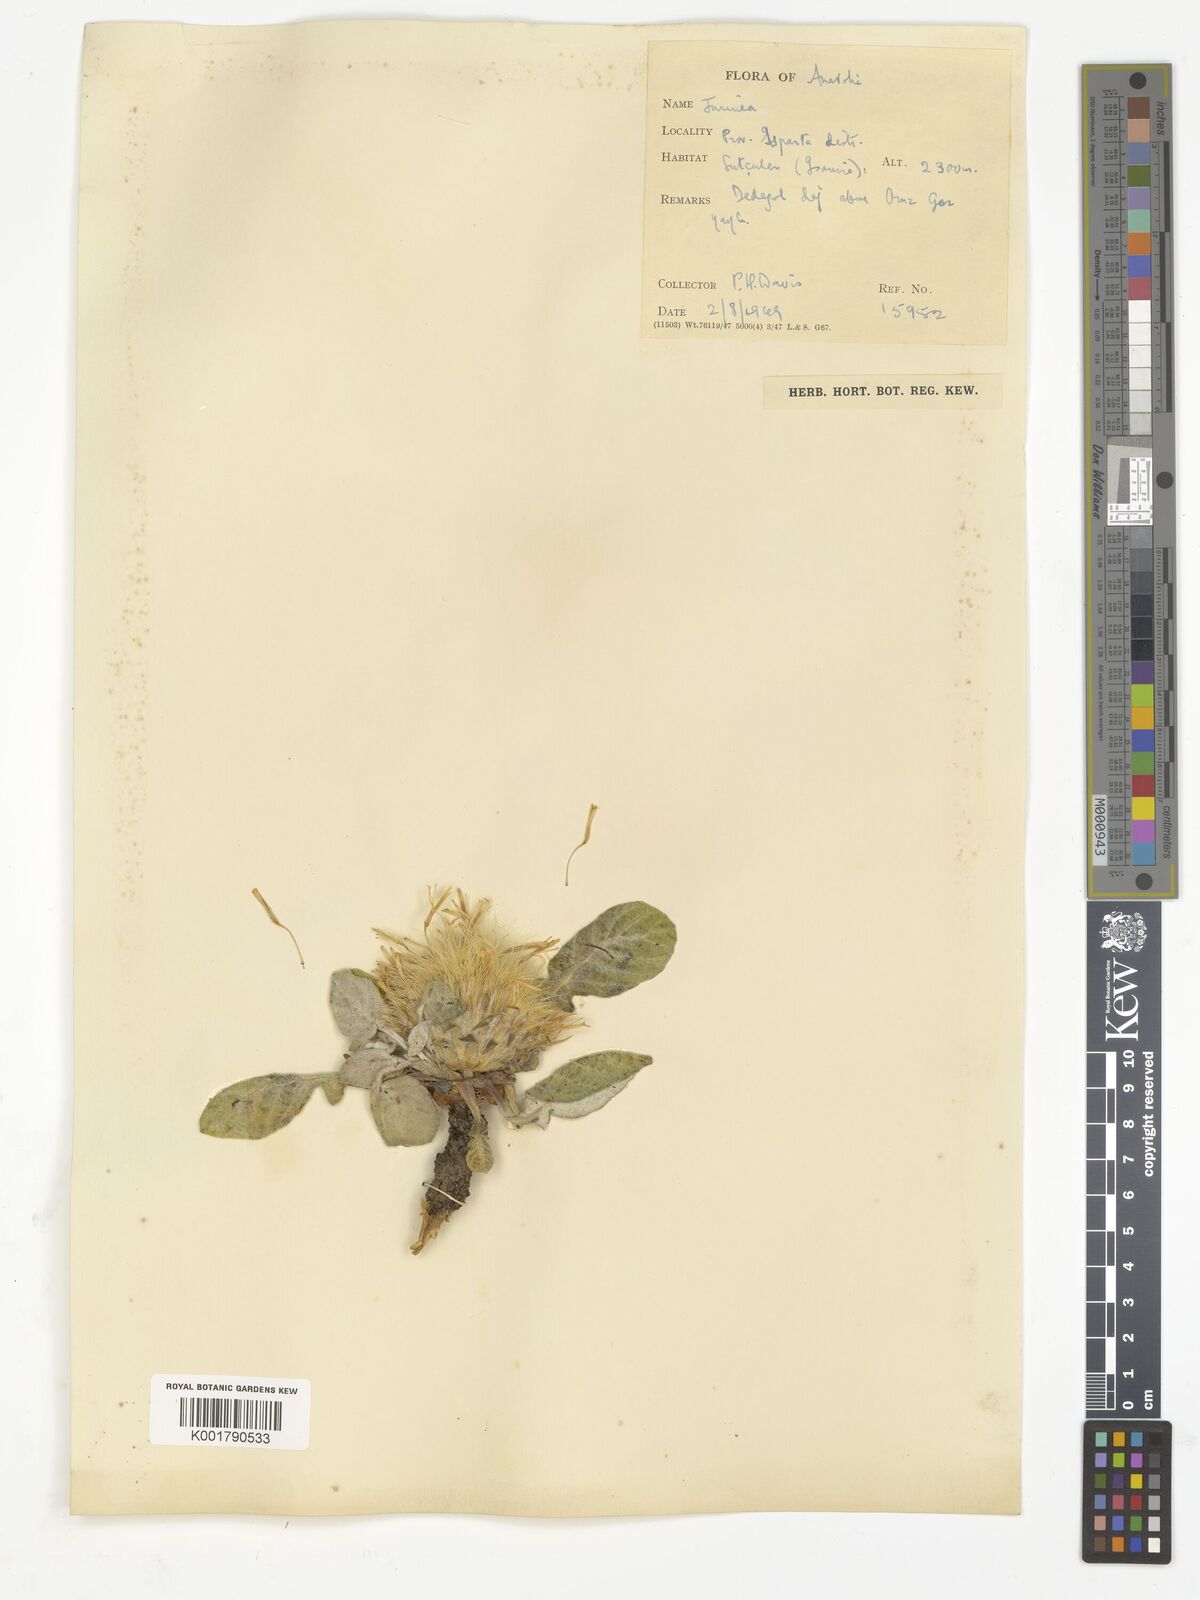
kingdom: Plantae
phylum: Tracheophyta
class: Magnoliopsida
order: Asterales
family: Asteraceae
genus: Jurinea
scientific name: Jurinea
